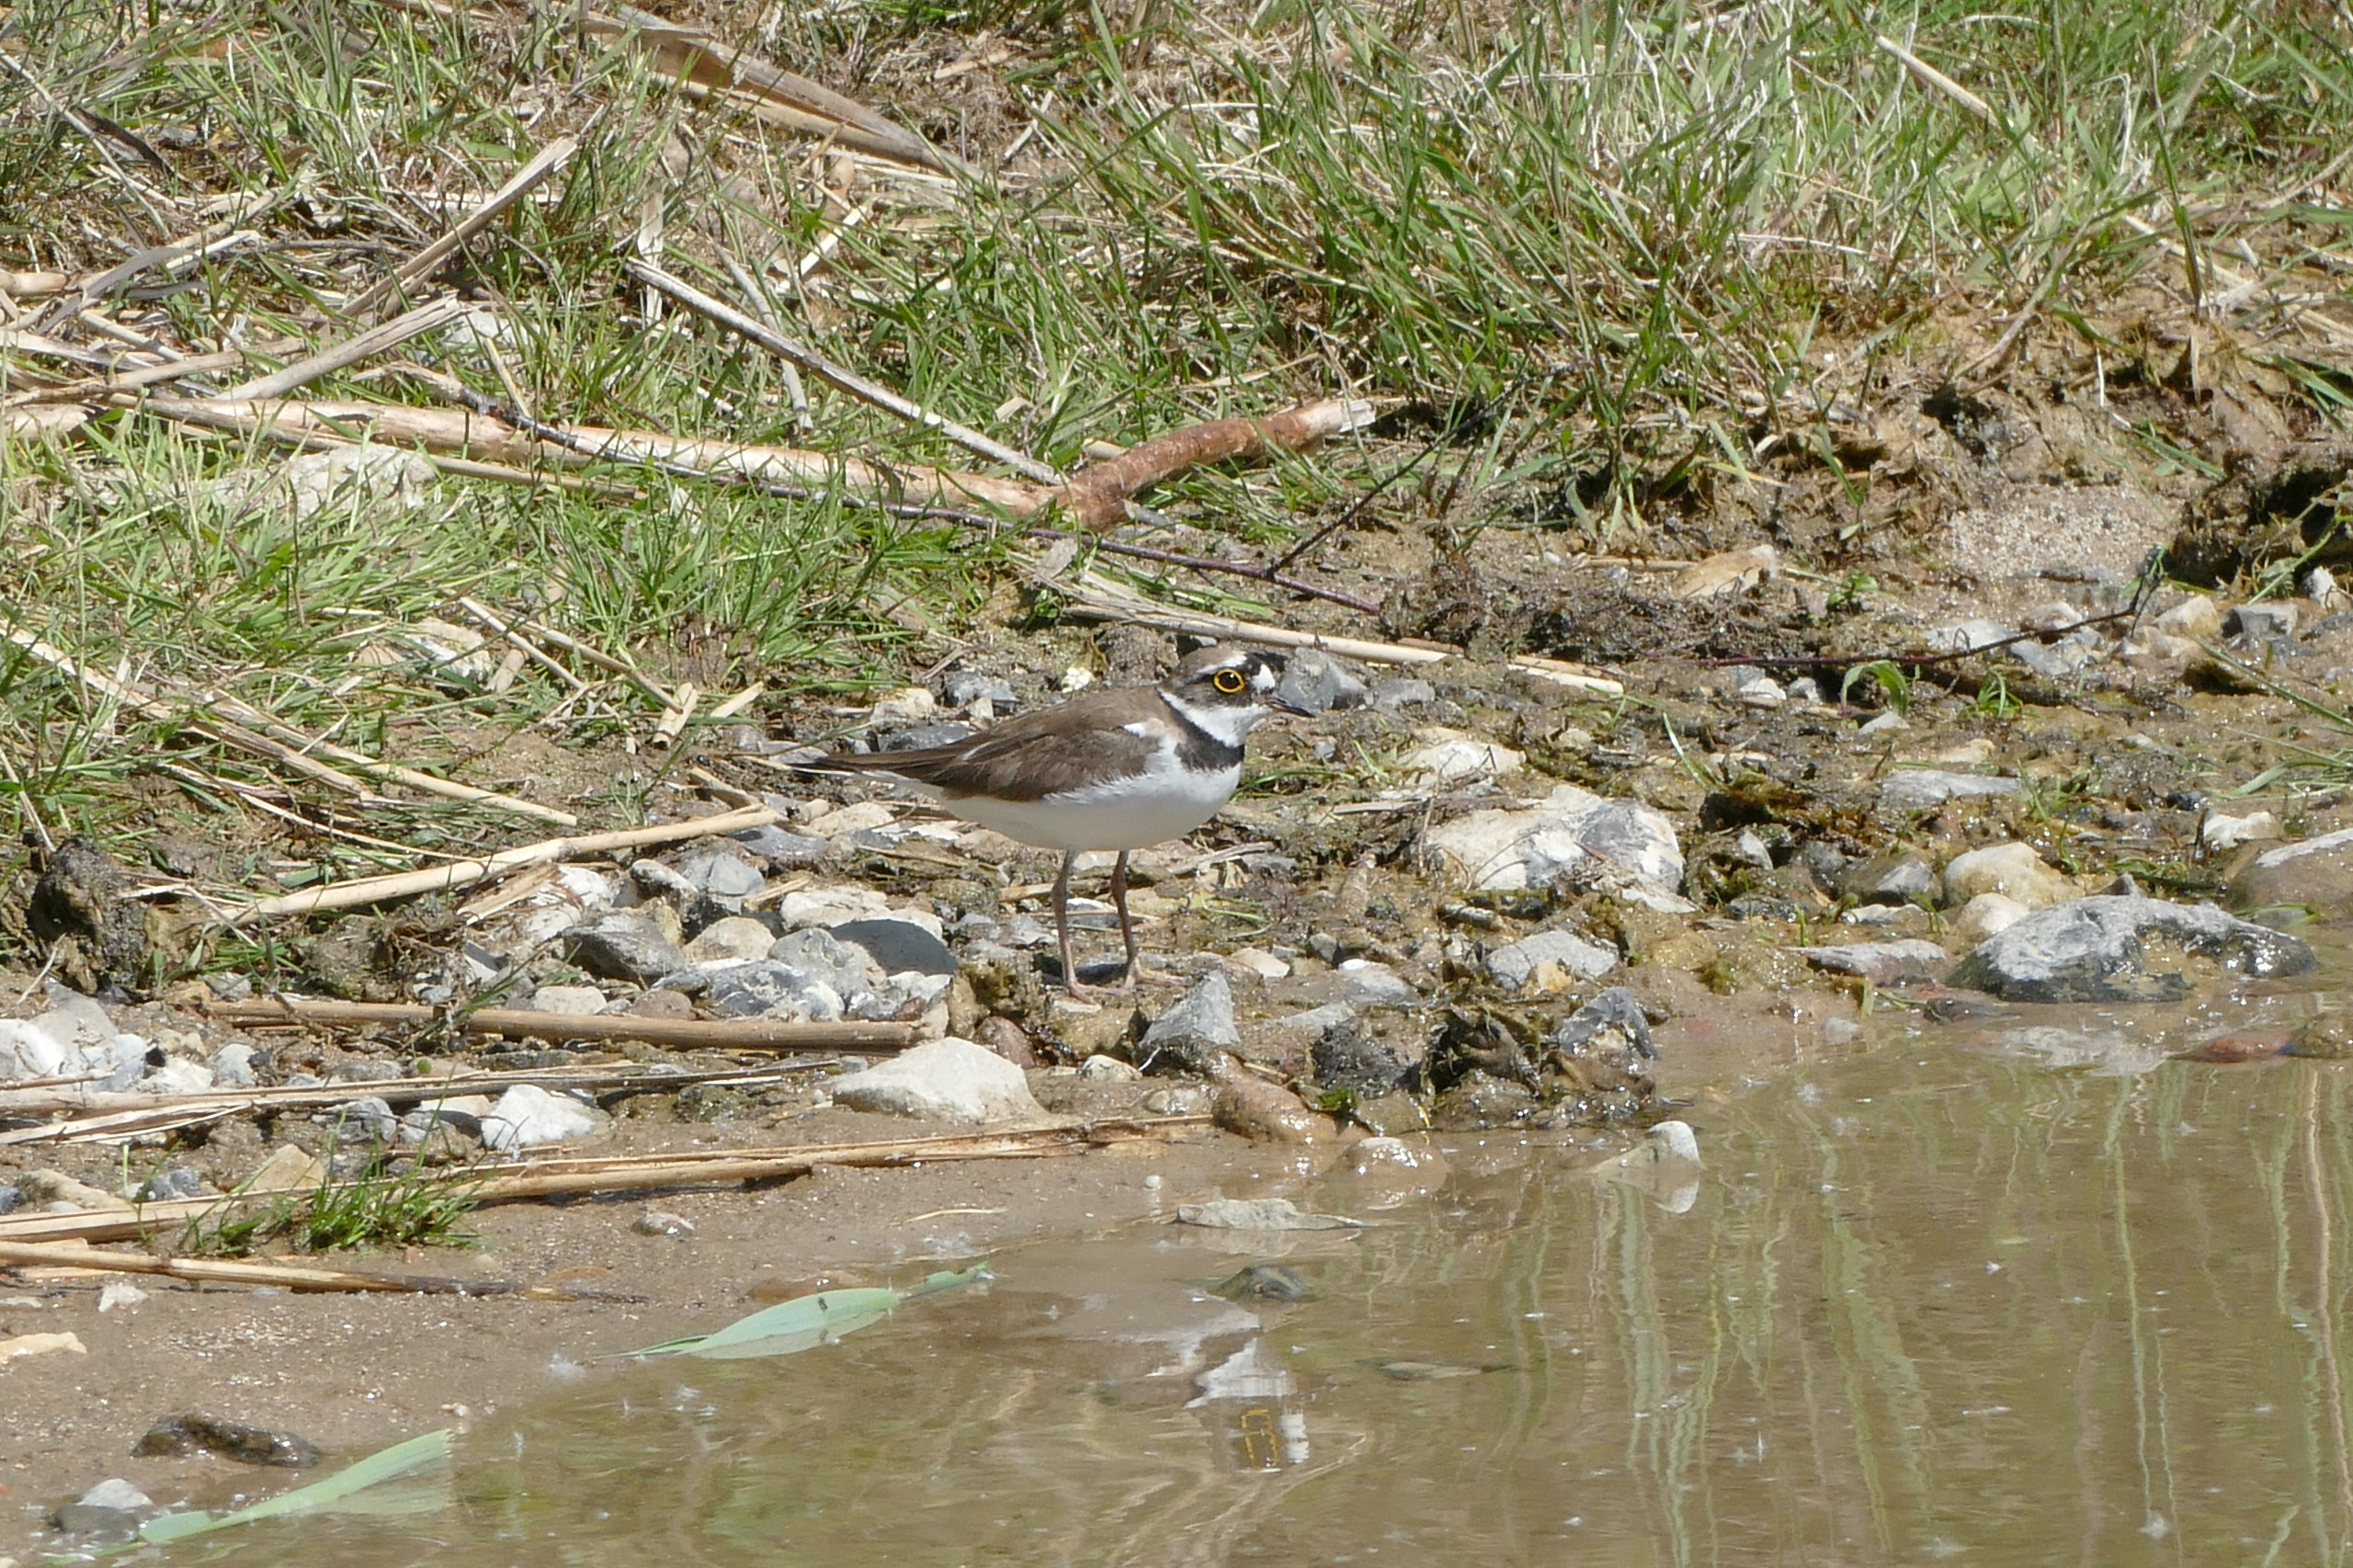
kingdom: Animalia
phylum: Chordata
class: Aves
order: Charadriiformes
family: Charadriidae
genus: Charadrius
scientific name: Charadrius dubius
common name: Lille præstekrave
